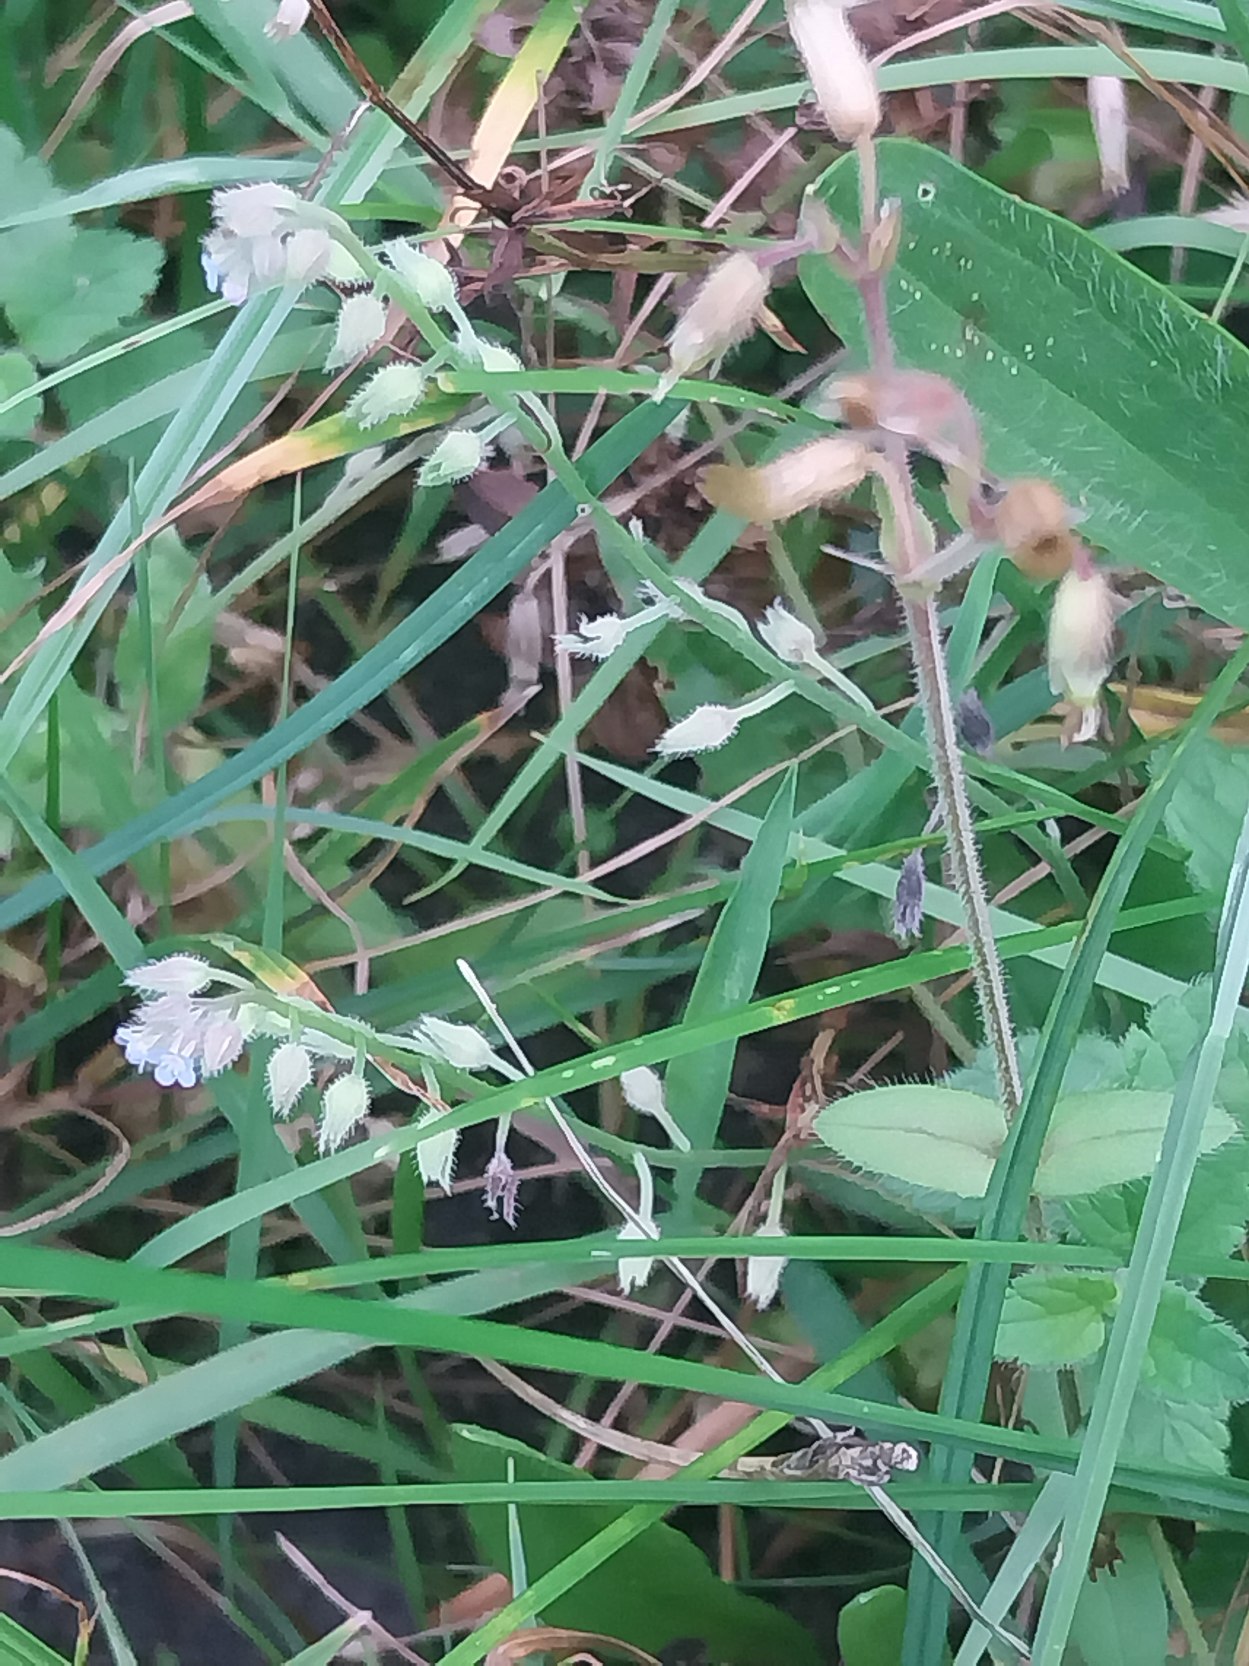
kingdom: Plantae
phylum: Tracheophyta
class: Magnoliopsida
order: Boraginales
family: Boraginaceae
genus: Myosotis
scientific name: Myosotis arvensis
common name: Mark-forglemmigej
